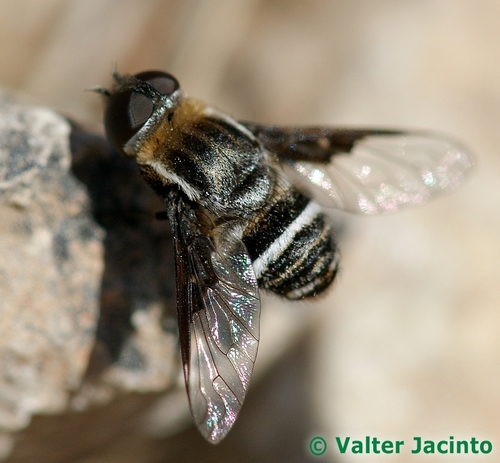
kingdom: Animalia
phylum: Arthropoda
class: Insecta
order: Diptera
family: Bombyliidae
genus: Exhyalanthrax
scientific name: Exhyalanthrax afer
